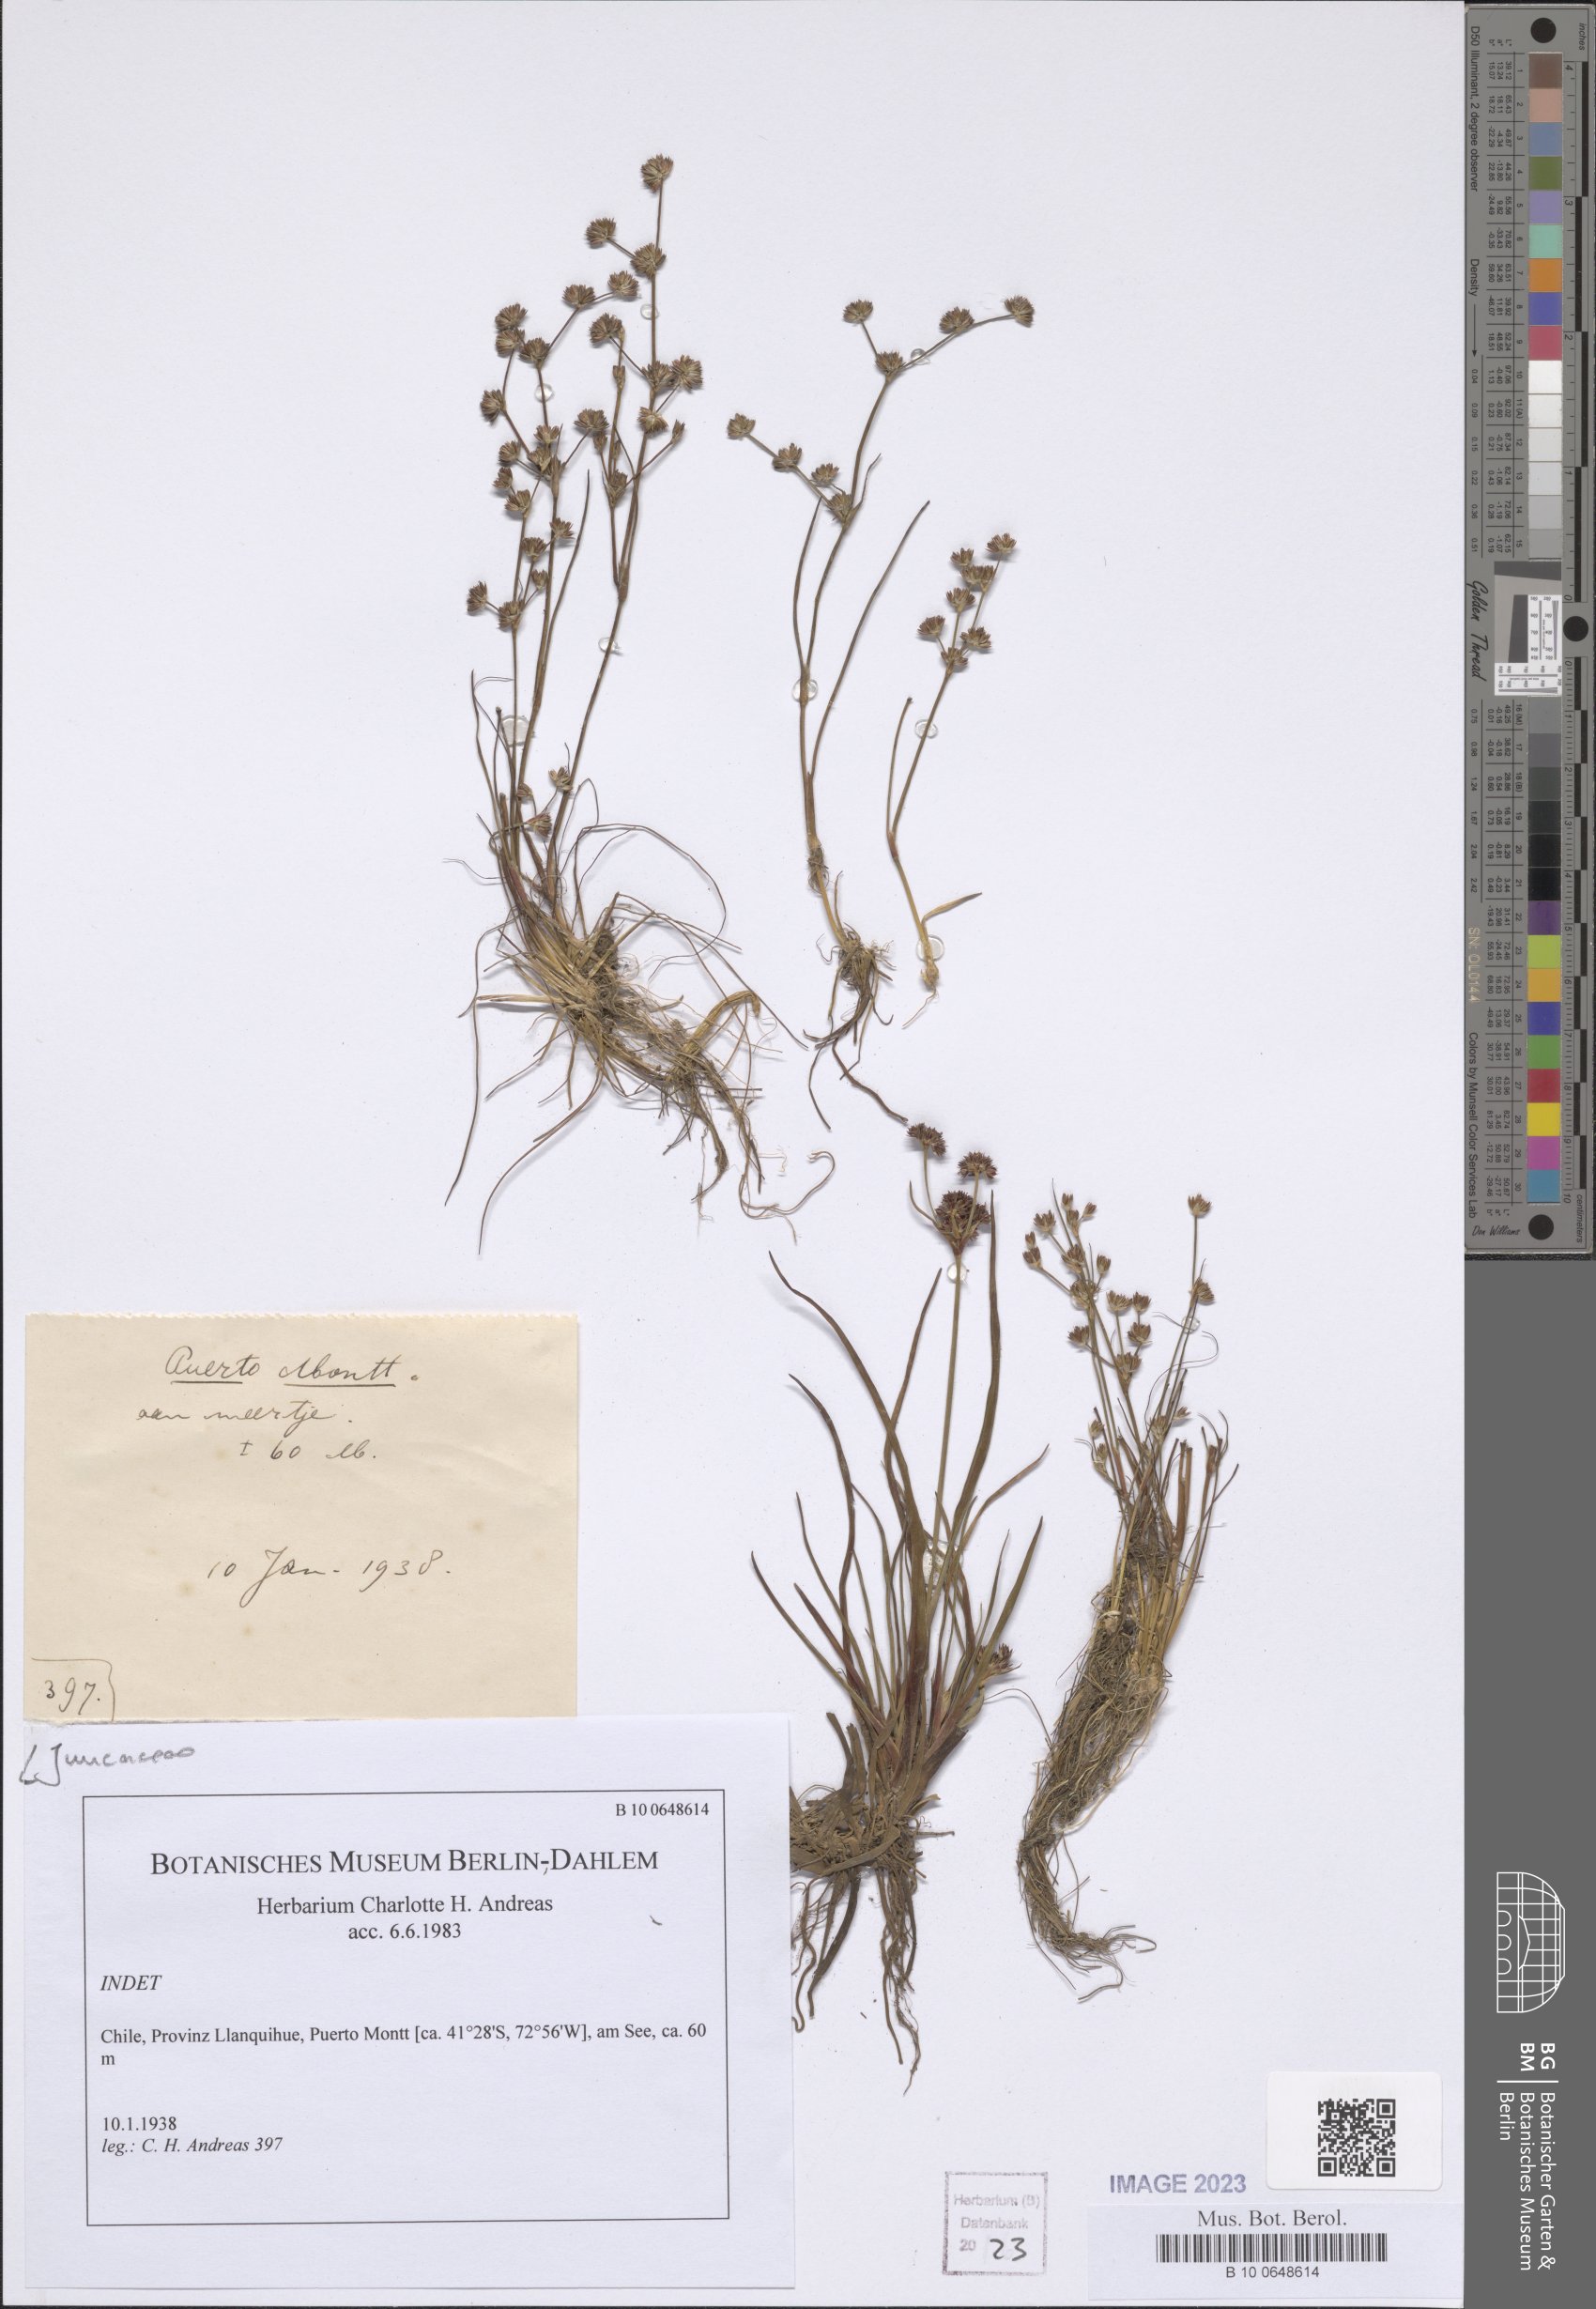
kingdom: Plantae
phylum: Tracheophyta
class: Liliopsida
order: Poales
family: Juncaceae
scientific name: Juncaceae
